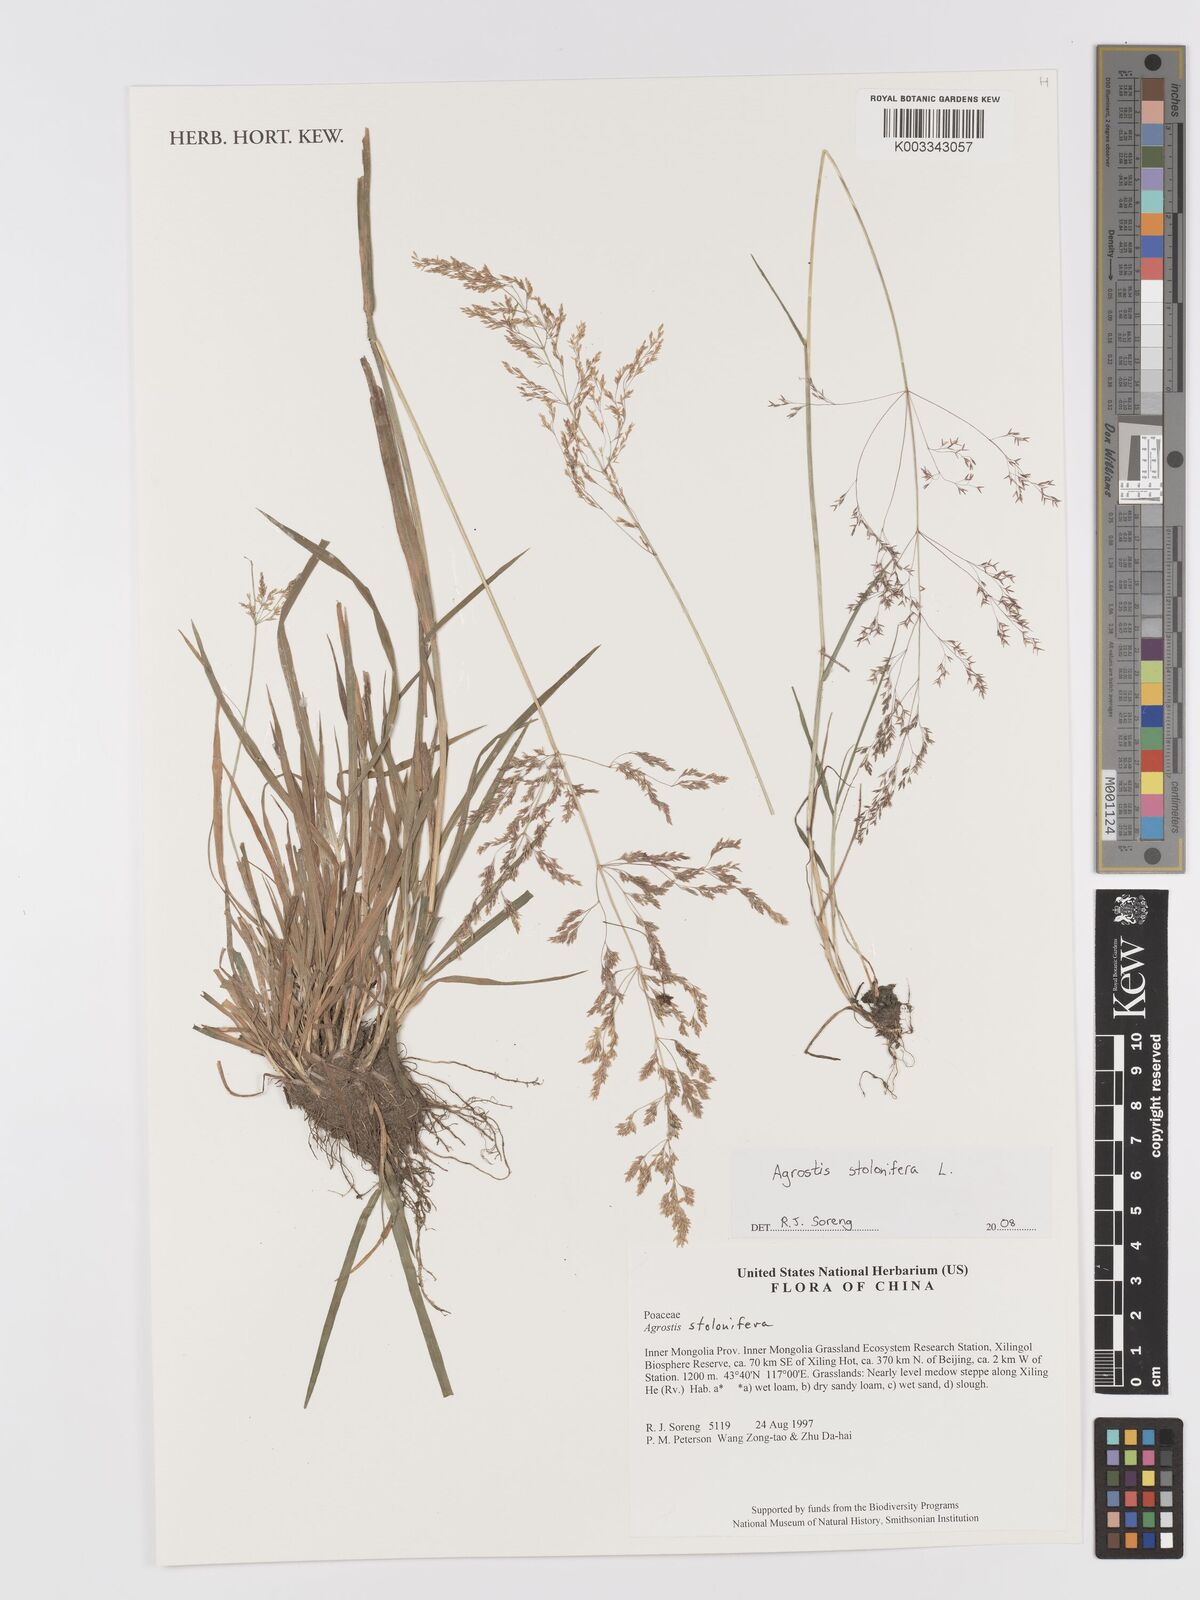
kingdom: Plantae
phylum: Tracheophyta
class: Liliopsida
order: Poales
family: Poaceae
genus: Agrostis
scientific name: Agrostis
